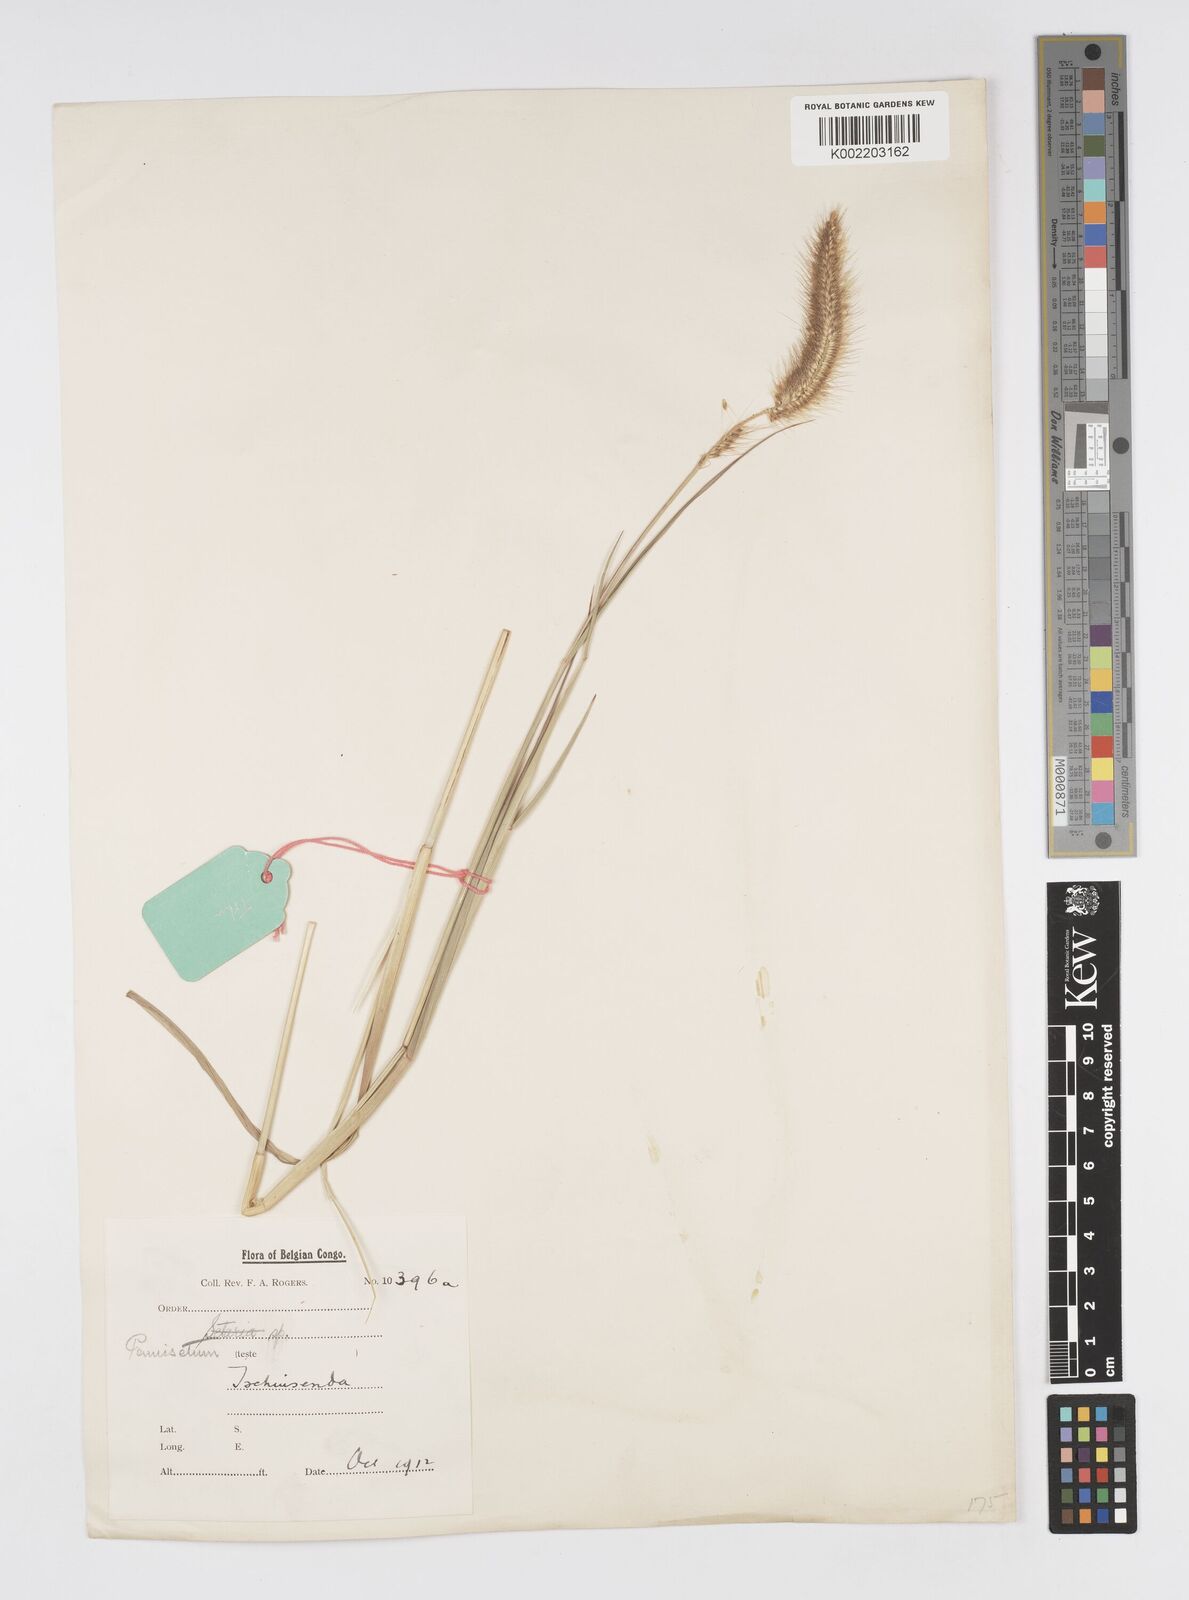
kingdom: Plantae
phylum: Tracheophyta
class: Liliopsida
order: Poales
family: Poaceae
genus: Cenchrus
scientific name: Cenchrus setosus
